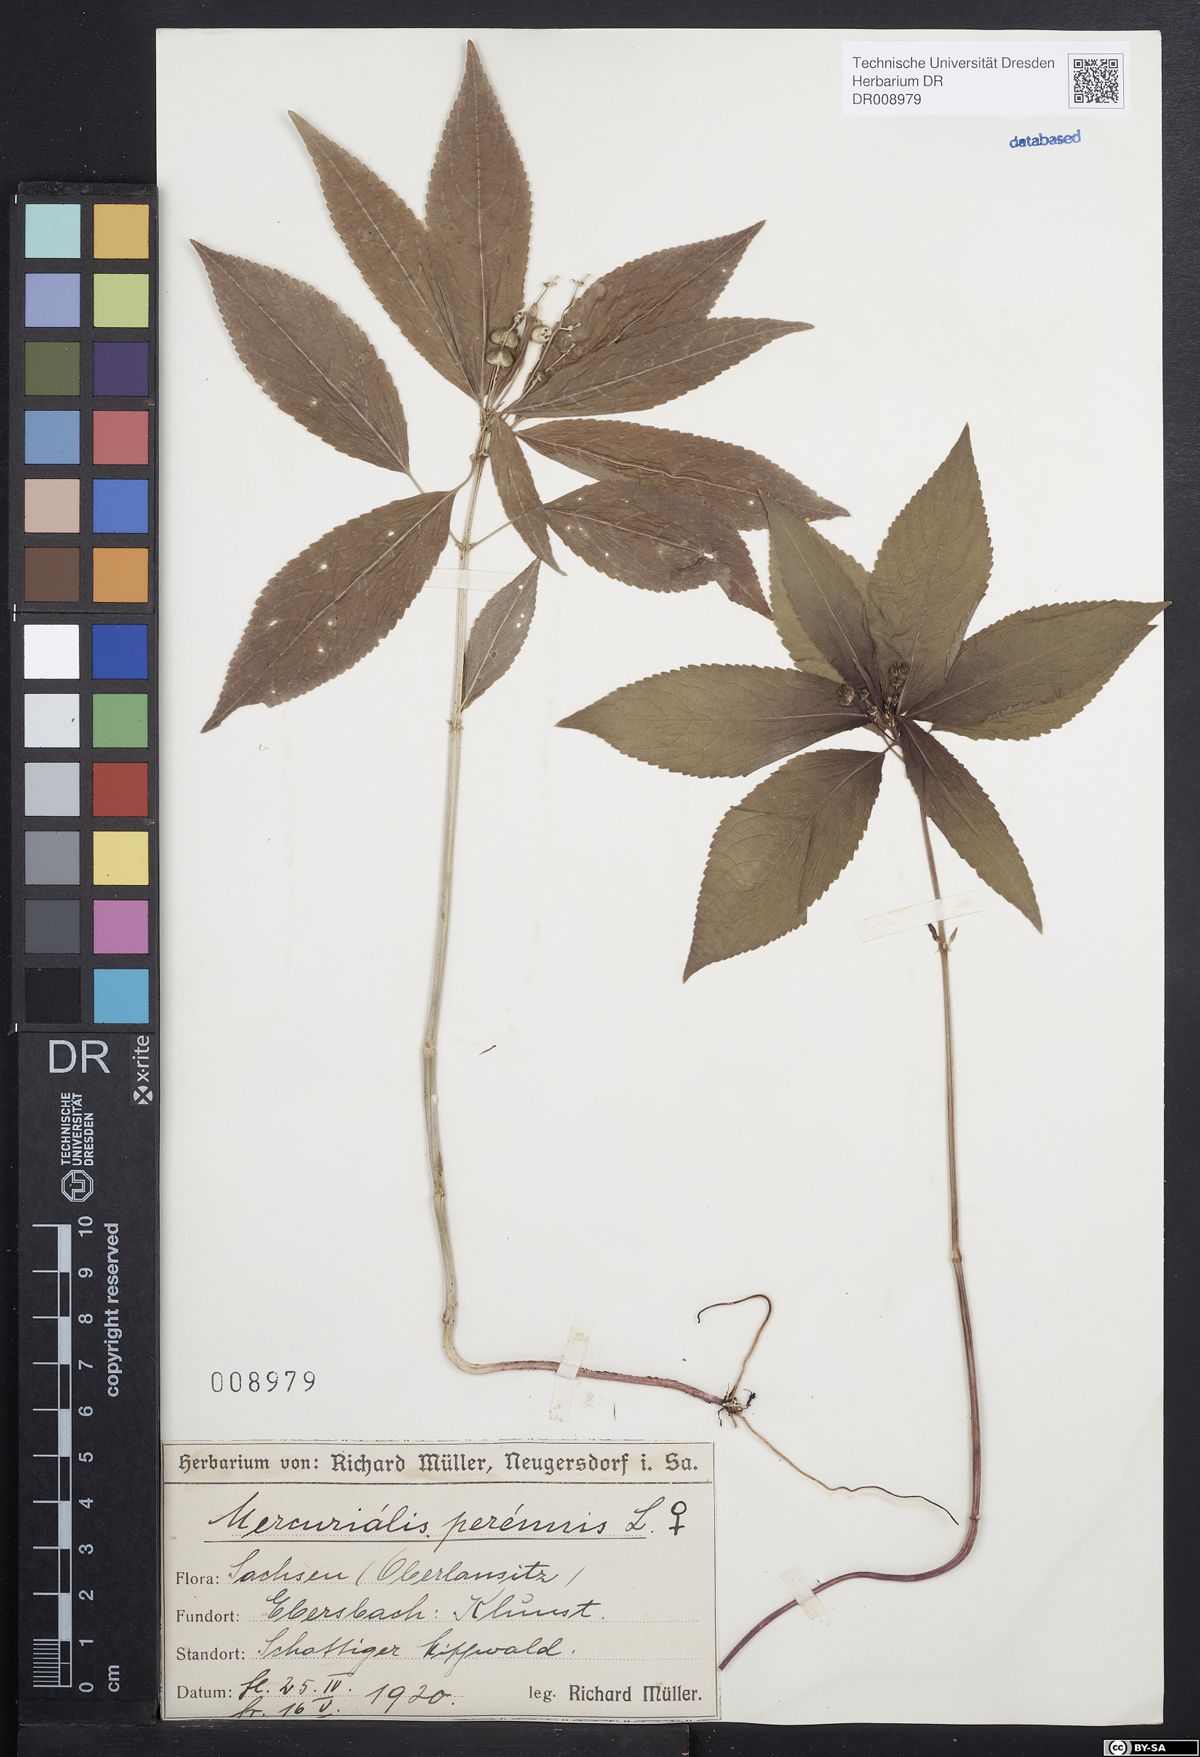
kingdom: Plantae
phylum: Tracheophyta
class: Magnoliopsida
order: Malpighiales
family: Euphorbiaceae
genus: Mercurialis
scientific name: Mercurialis perennis
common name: Dog mercury
